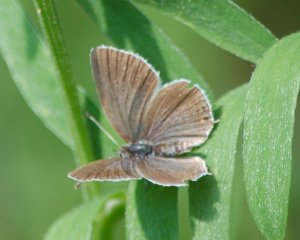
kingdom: Animalia
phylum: Arthropoda
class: Insecta
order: Lepidoptera
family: Lycaenidae
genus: Elkalyce
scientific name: Elkalyce amyntula
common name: Western Tailed-Blue
